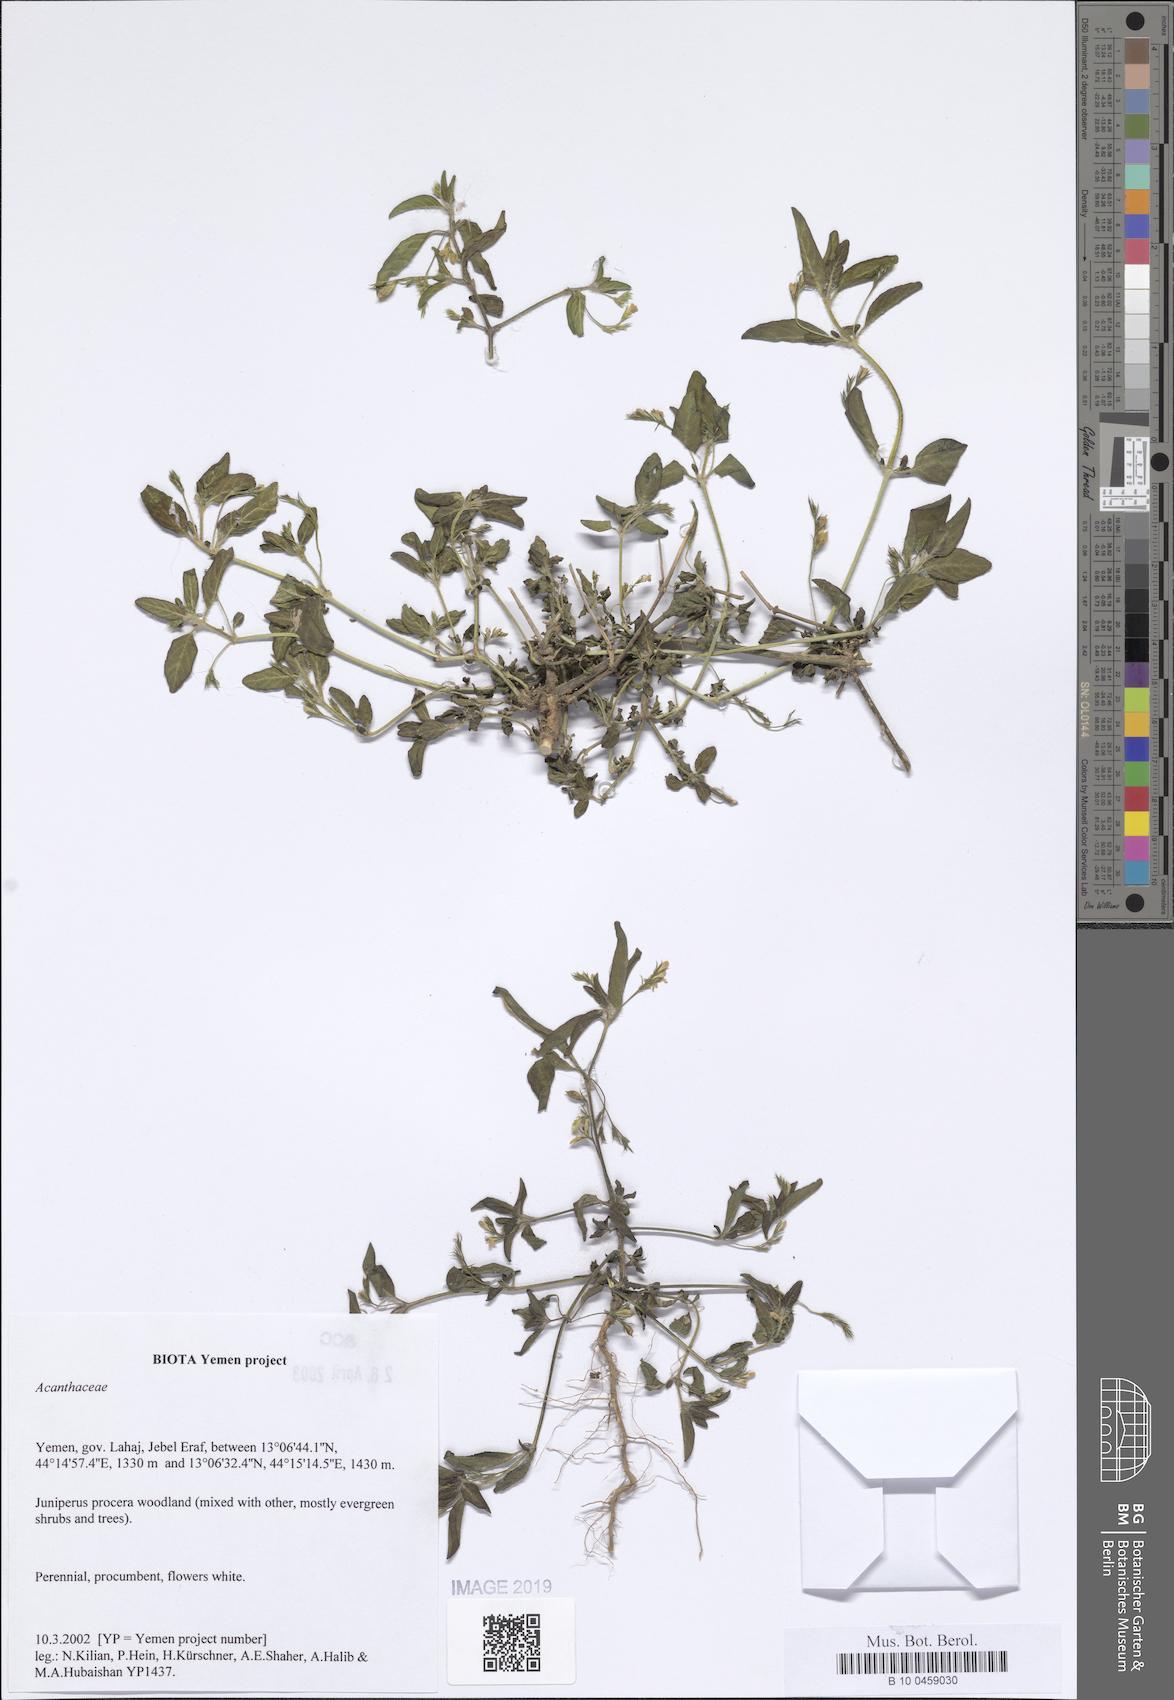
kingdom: Plantae
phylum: Tracheophyta
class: Magnoliopsida
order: Lamiales
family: Acanthaceae
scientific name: Acanthaceae
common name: Acanthaceae
